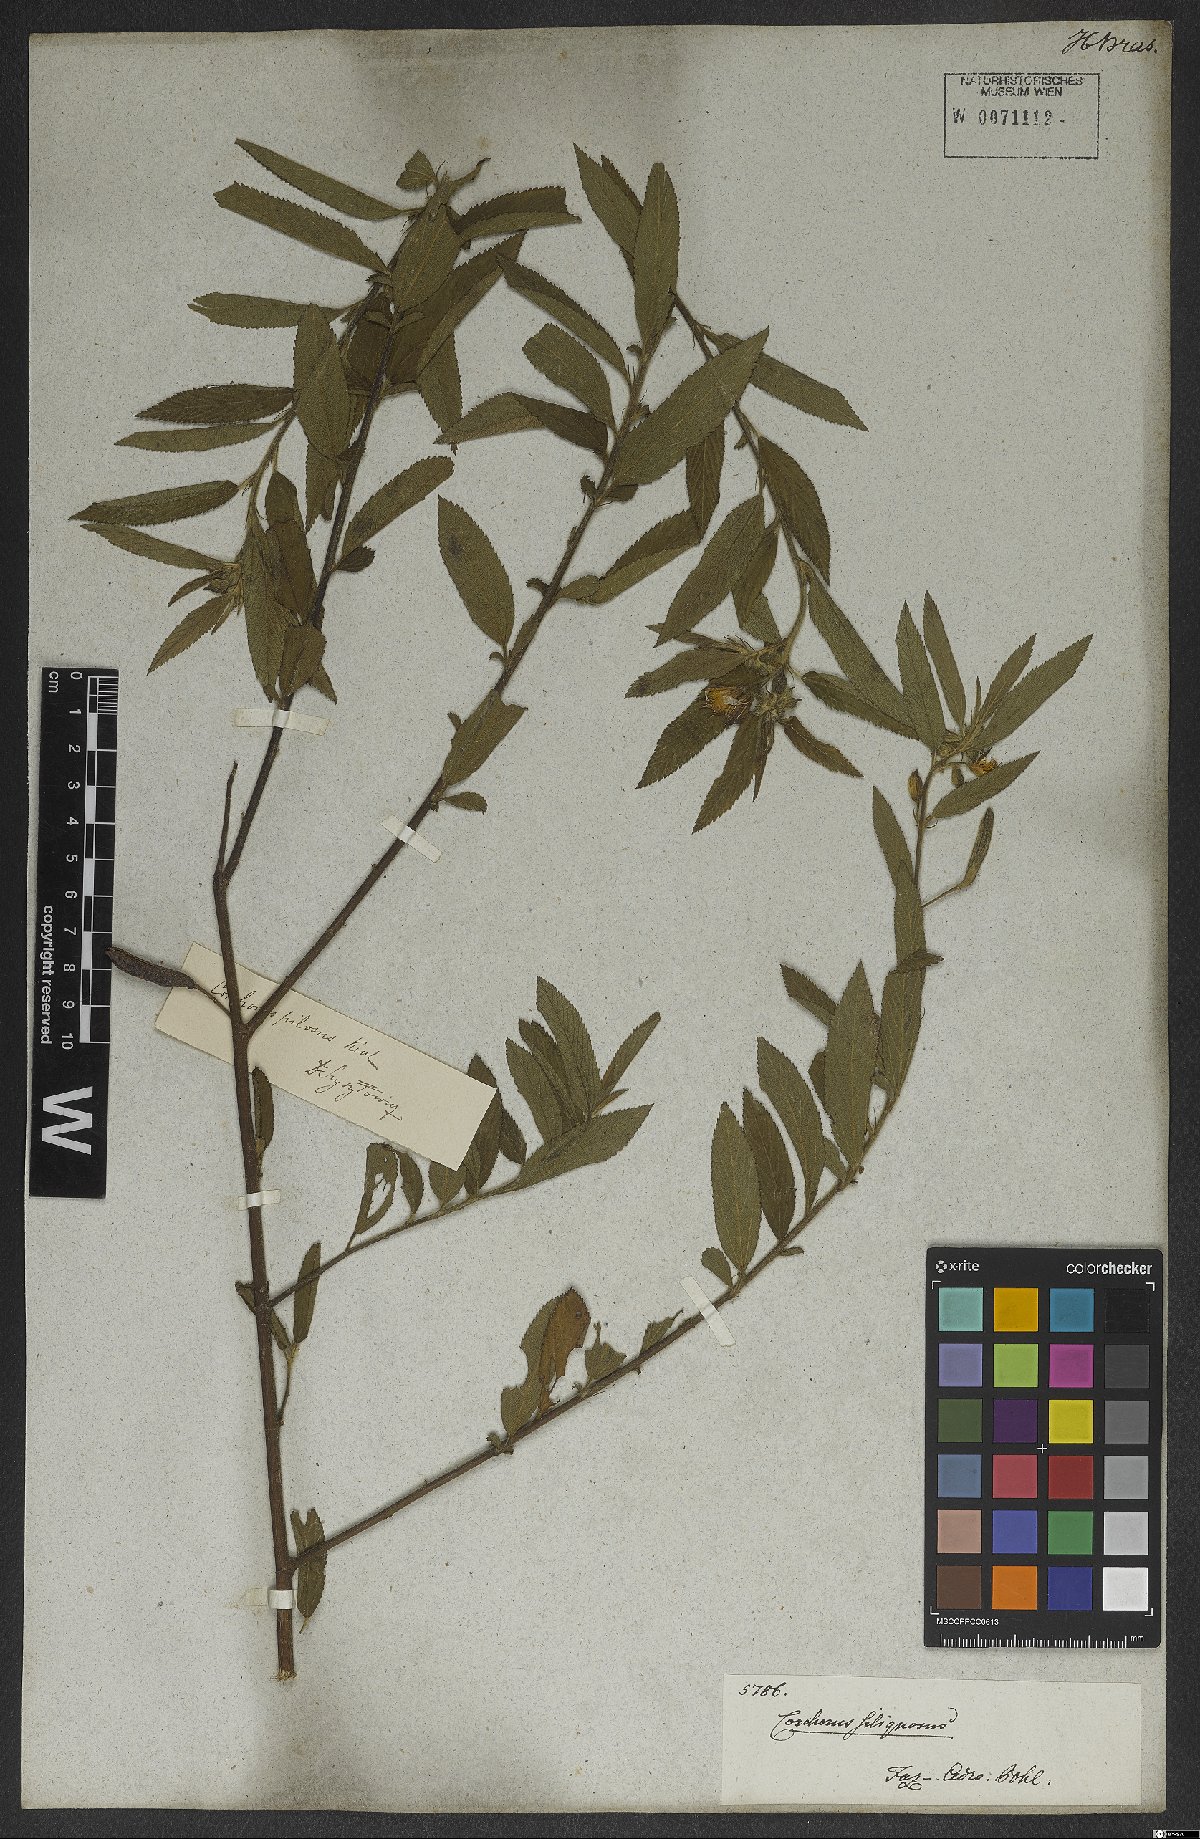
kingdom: Plantae
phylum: Tracheophyta
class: Magnoliopsida
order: Malvales
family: Malvaceae
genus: Corchorus
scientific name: Corchorus hirtus
